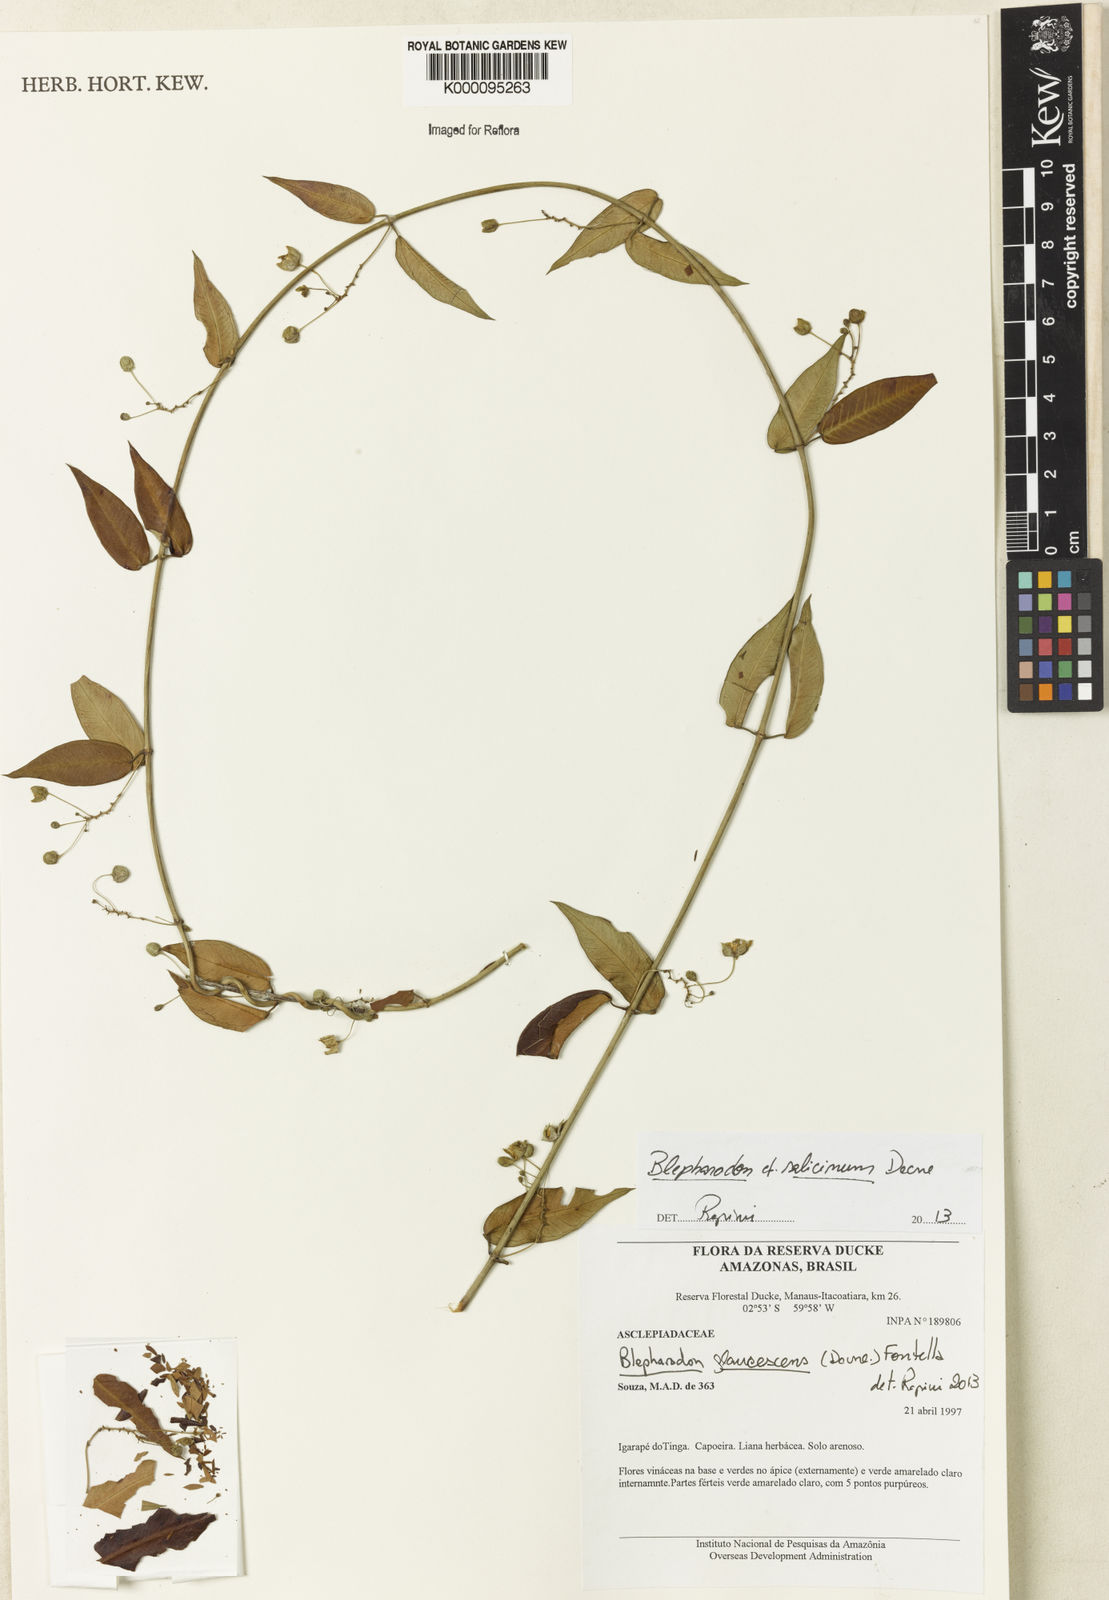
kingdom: Plantae
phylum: Tracheophyta
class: Magnoliopsida
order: Gentianales
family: Apocynaceae
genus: Blepharodon
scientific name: Blepharodon glaucescens
